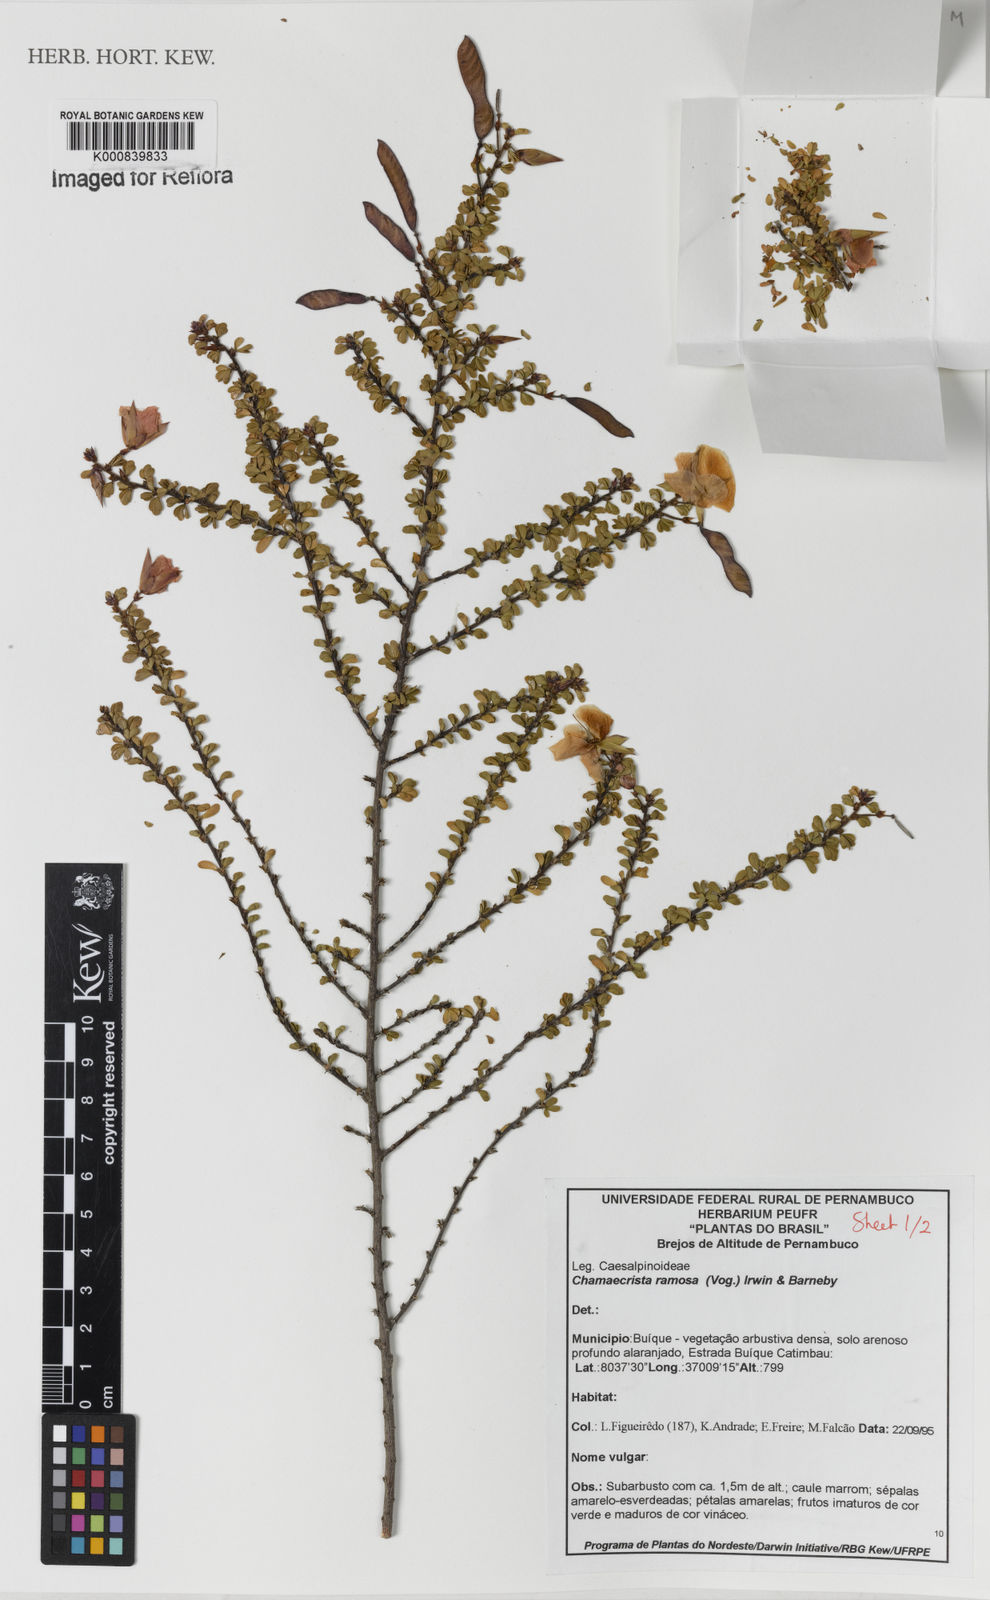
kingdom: Plantae
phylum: Tracheophyta
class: Magnoliopsida
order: Fabales
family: Fabaceae
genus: Chamaecrista
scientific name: Chamaecrista ramosa
